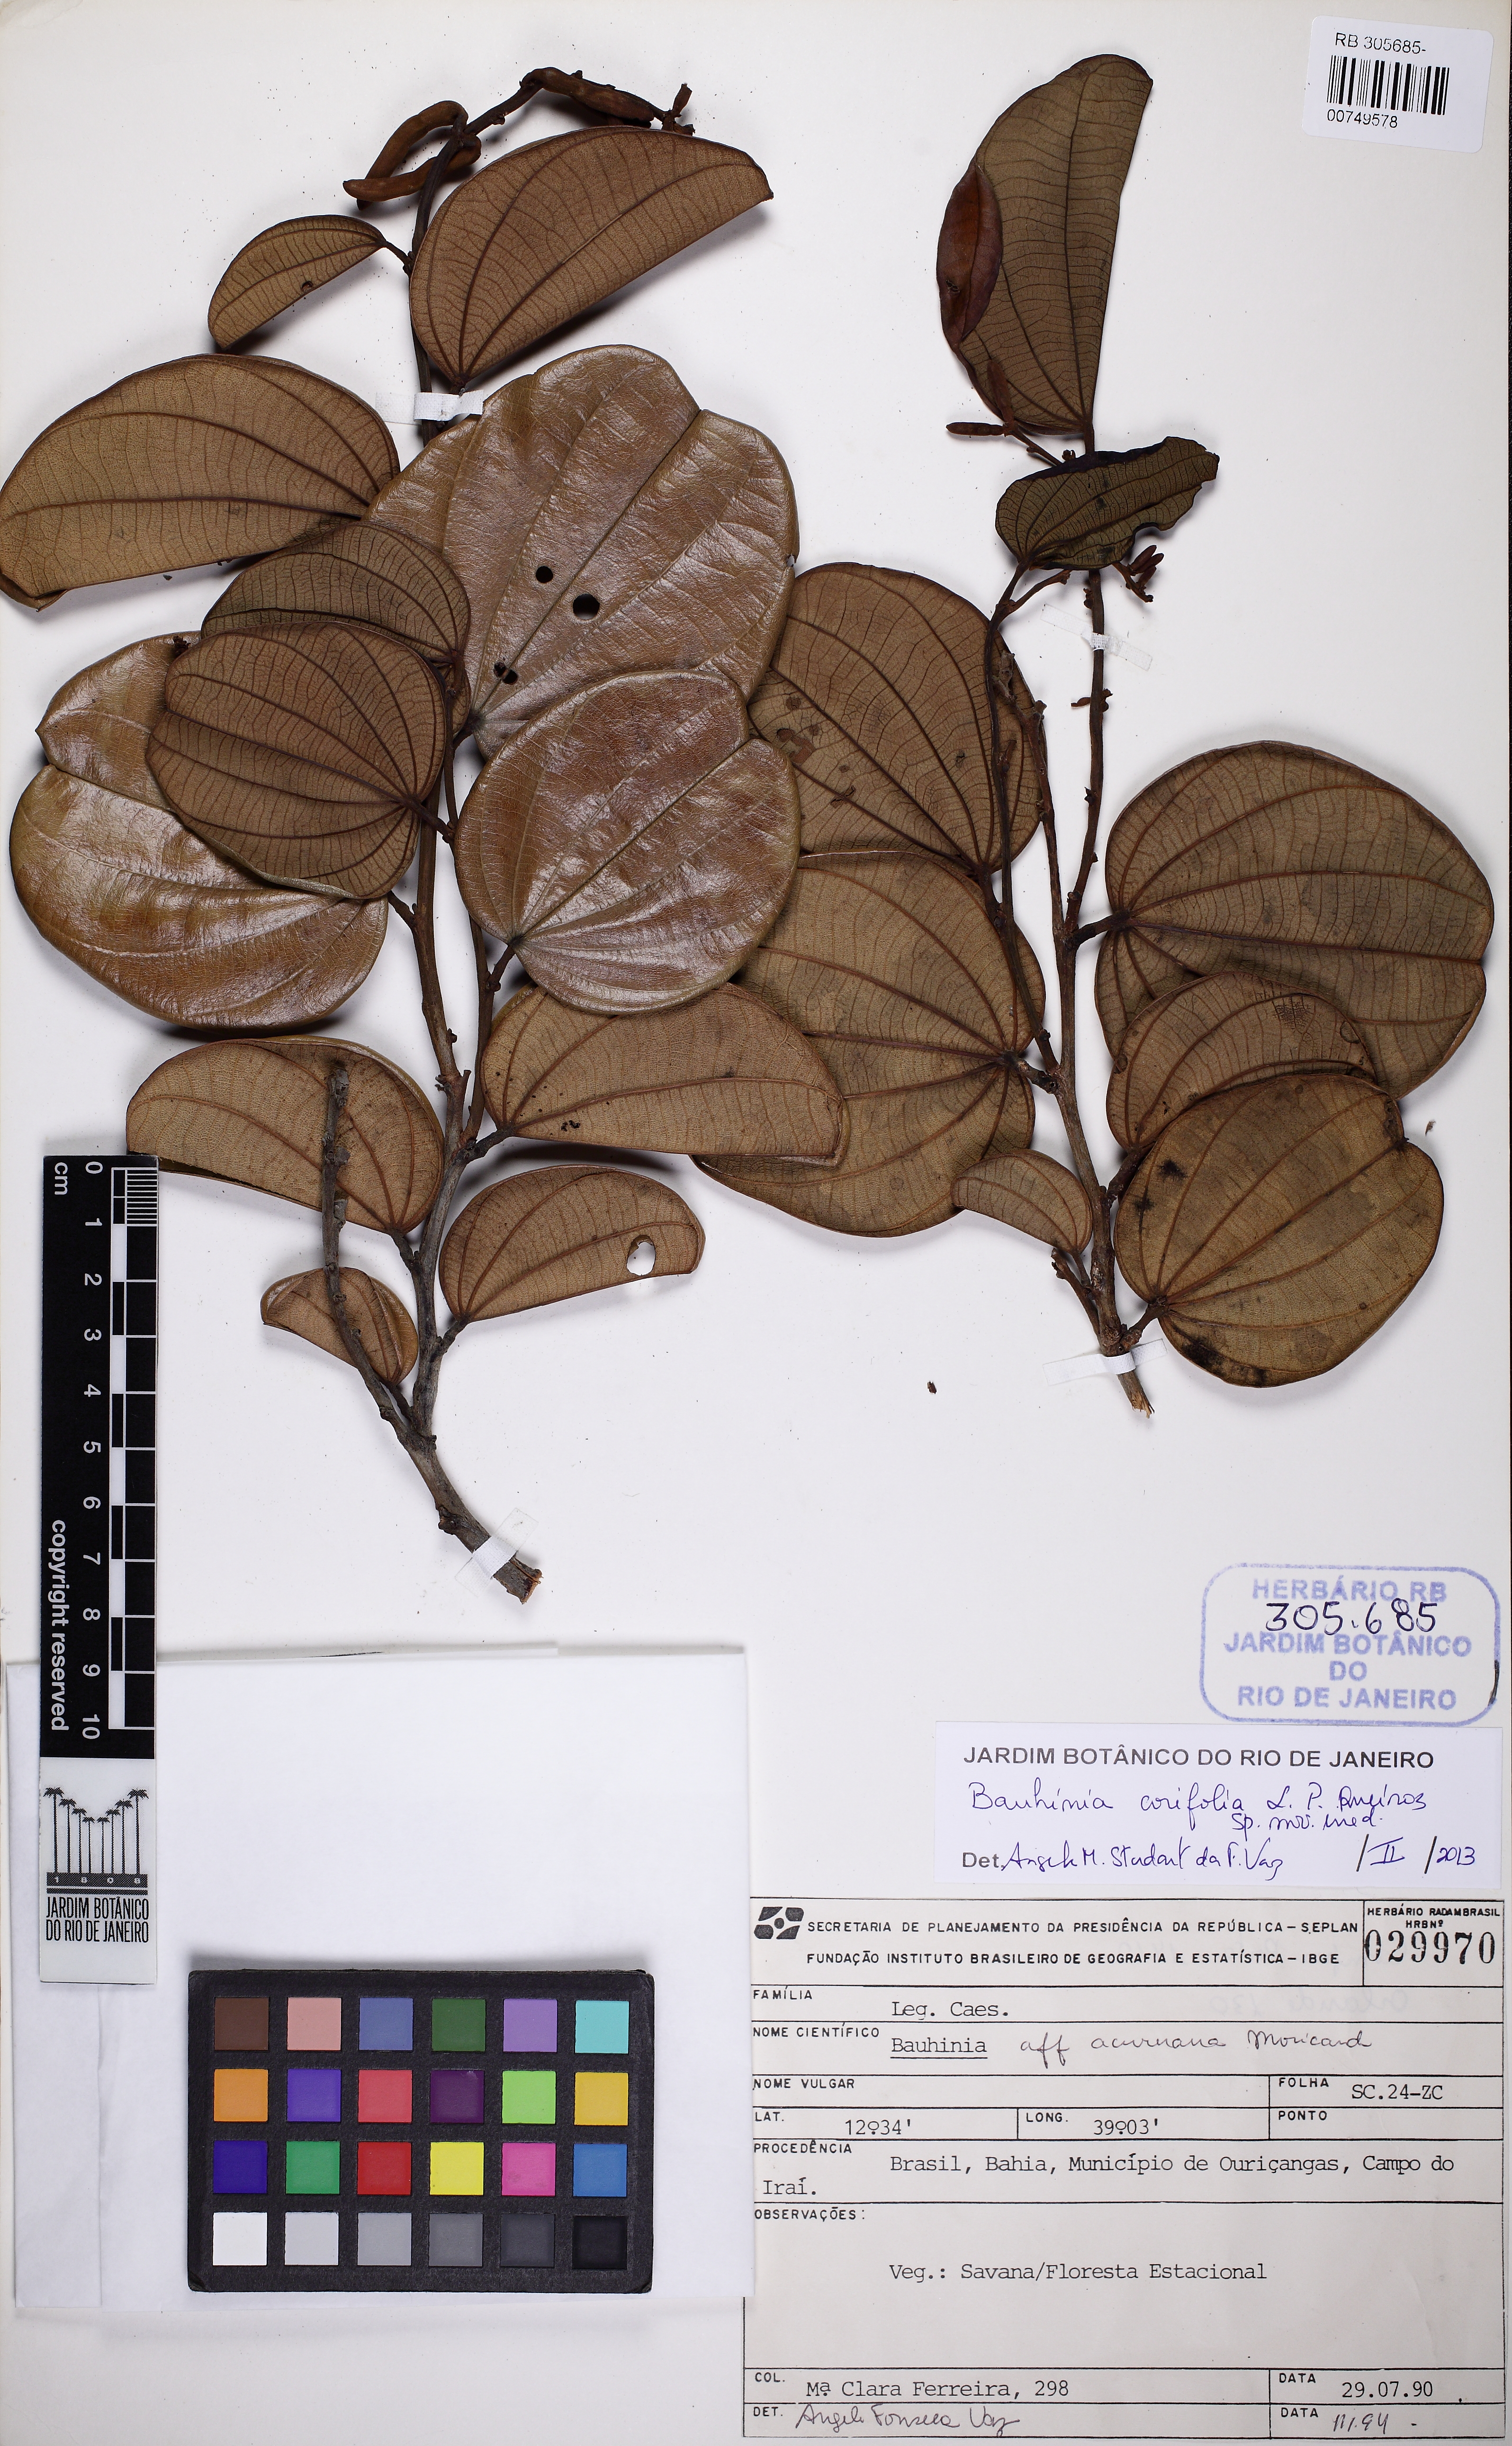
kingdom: Plantae
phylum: Tracheophyta
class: Magnoliopsida
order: Fabales
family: Fabaceae
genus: Bauhinia
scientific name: Bauhinia corifolia
